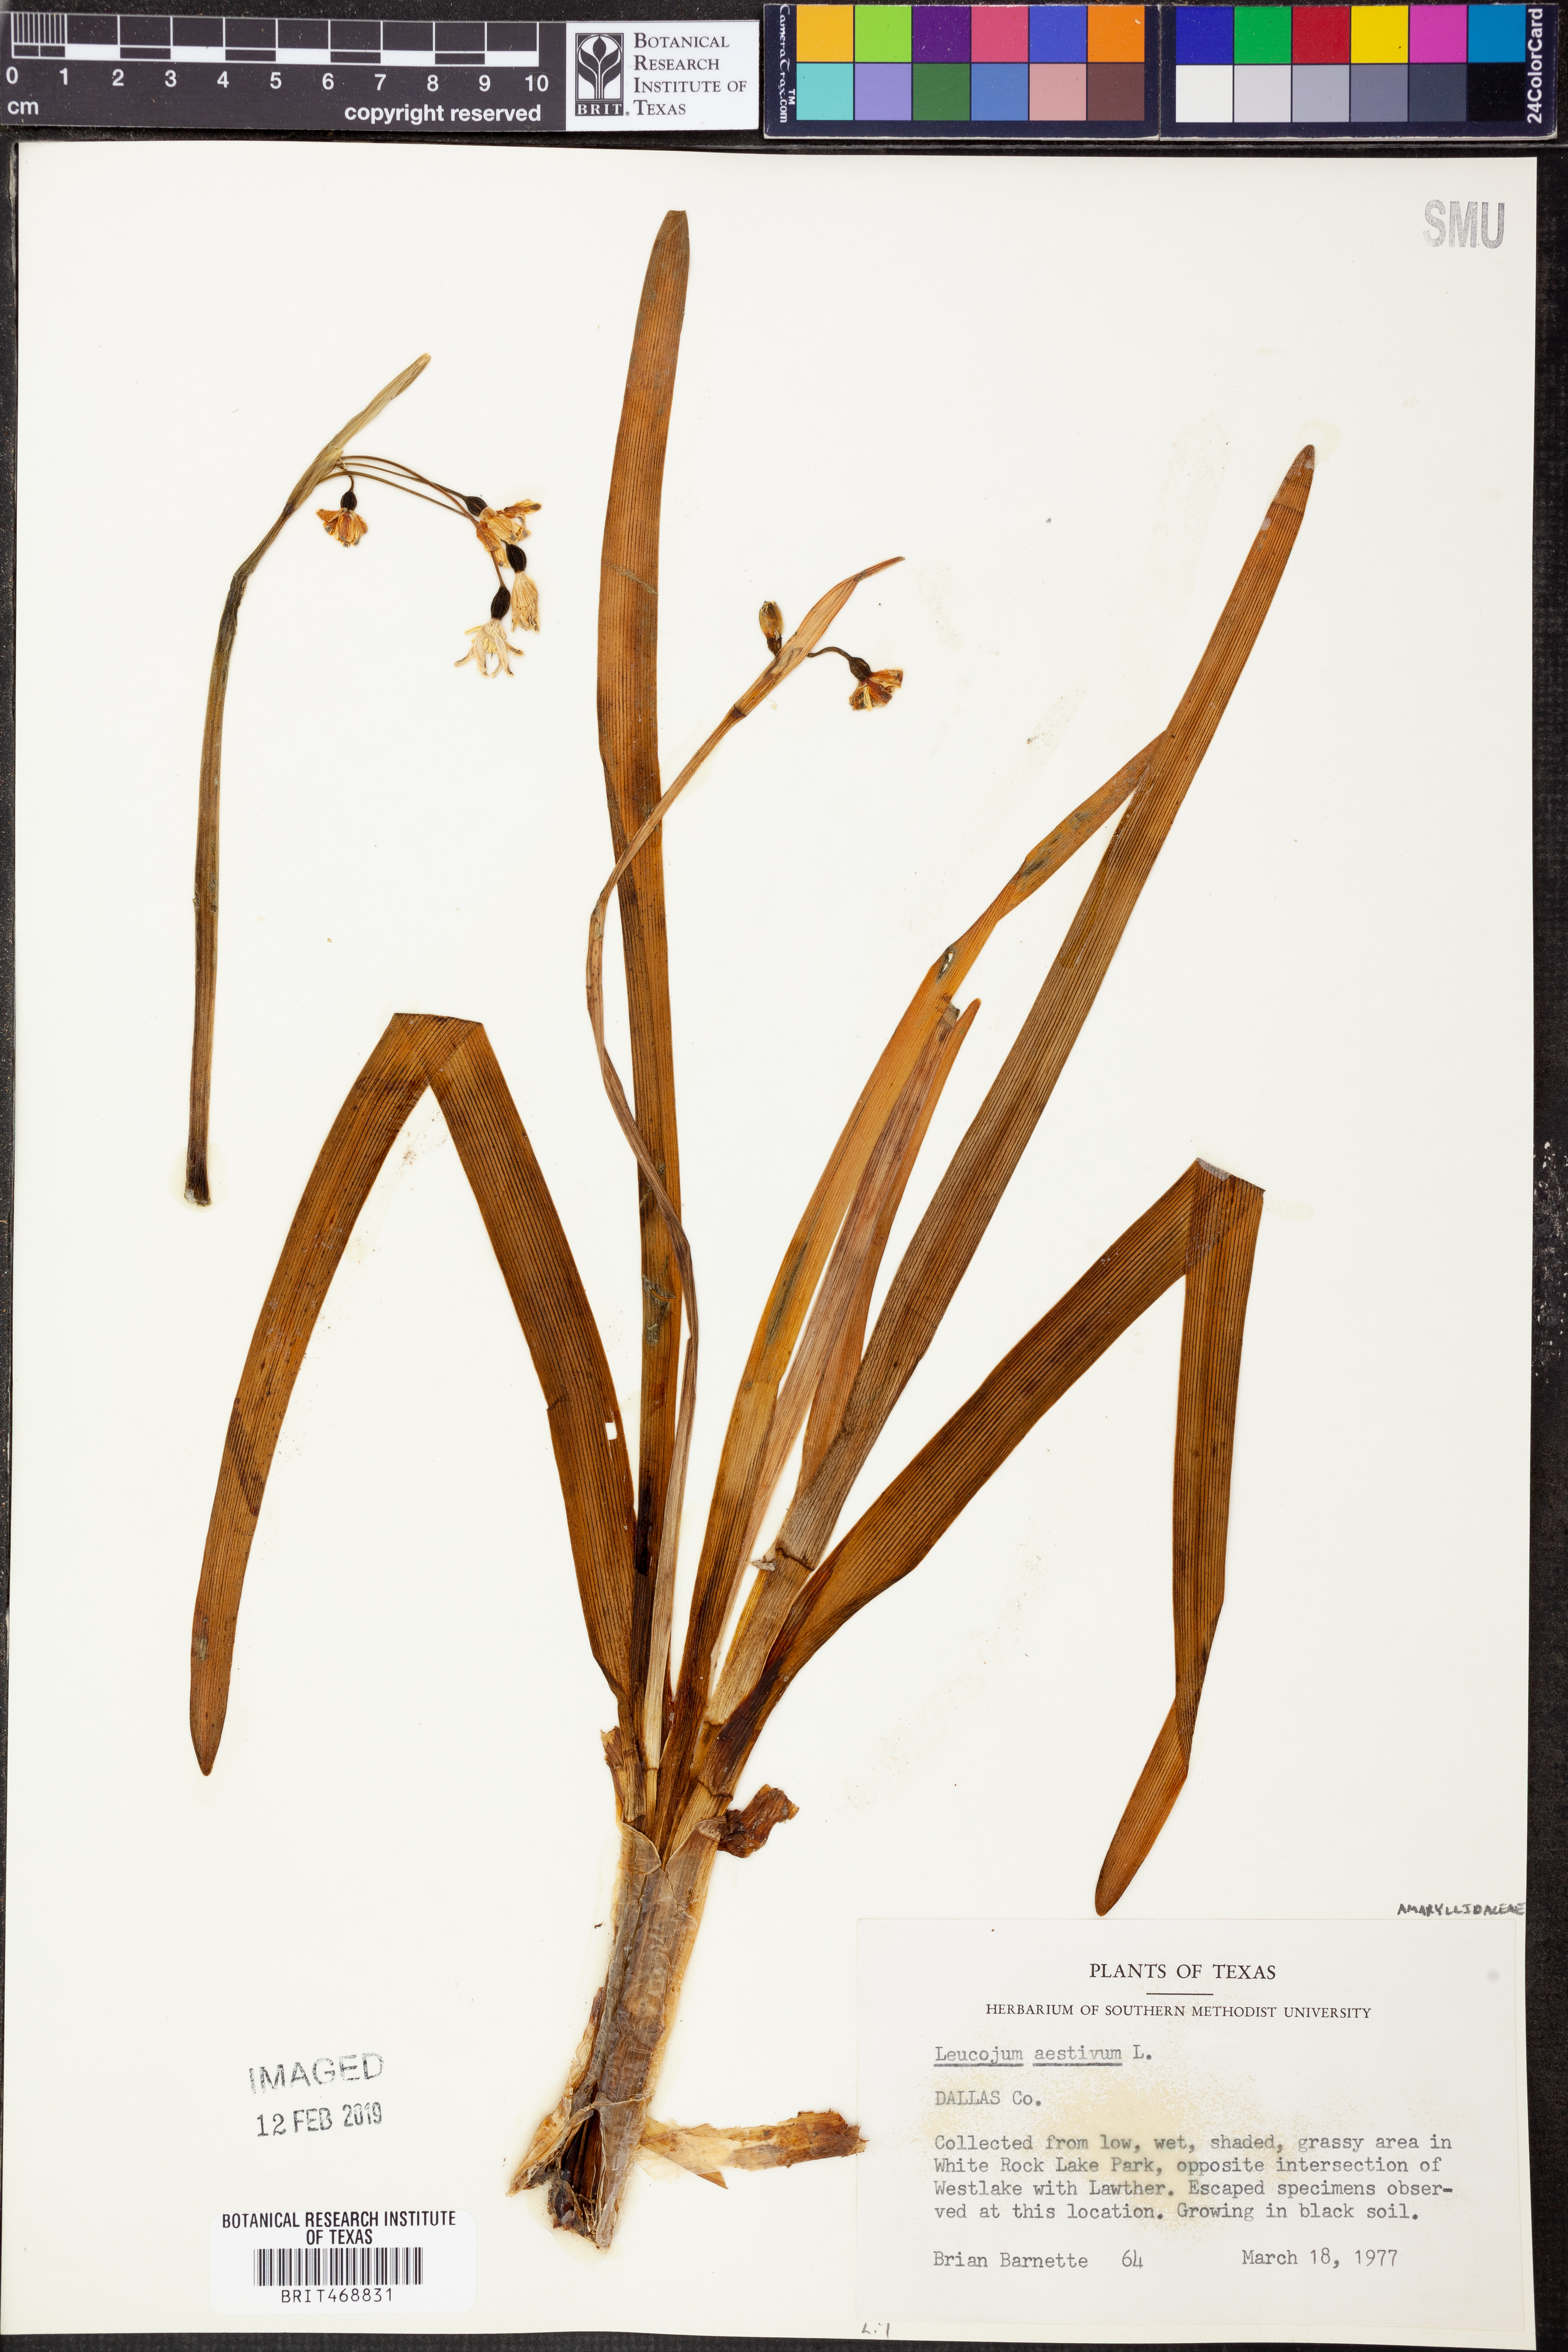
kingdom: Plantae
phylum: Tracheophyta
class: Liliopsida
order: Asparagales
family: Amaryllidaceae
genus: Leucojum
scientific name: Leucojum aestivum
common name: Summer snowflake
